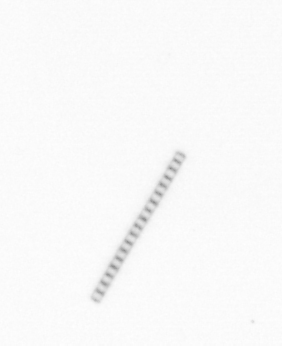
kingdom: Chromista
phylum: Ochrophyta
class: Bacillariophyceae
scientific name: Bacillariophyceae
